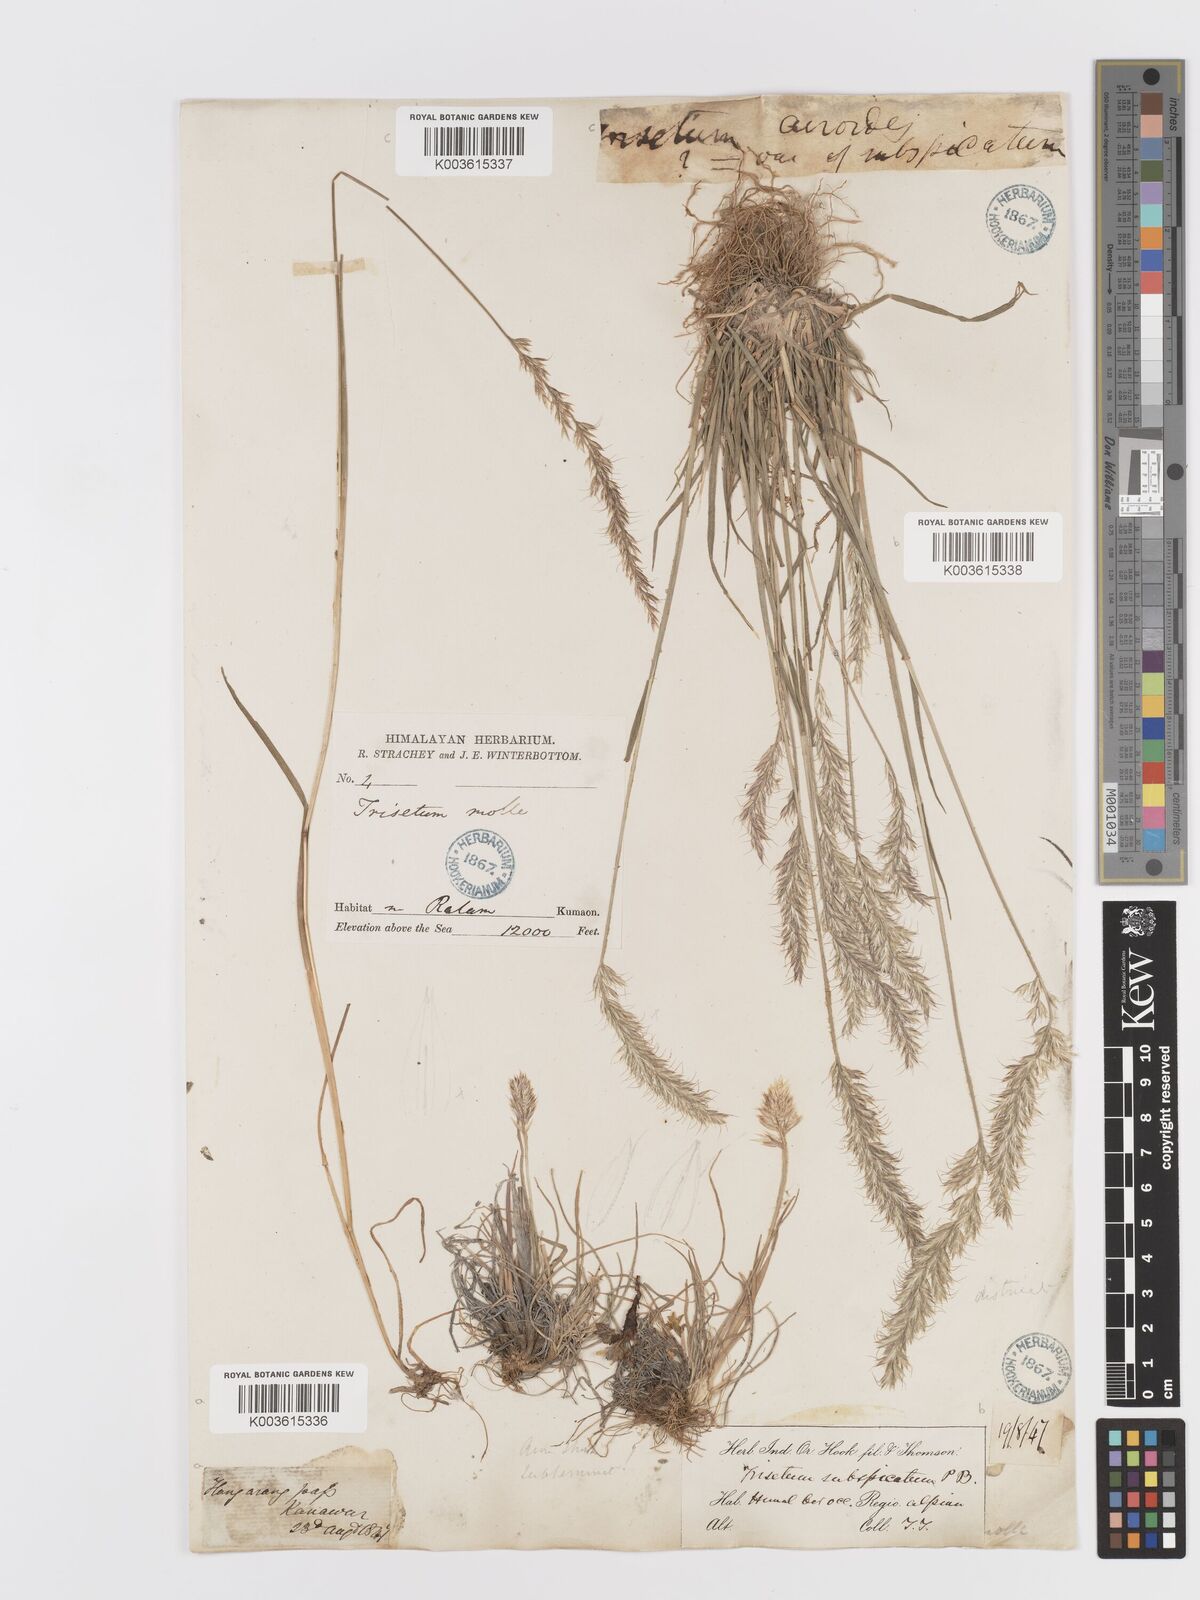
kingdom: Plantae
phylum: Tracheophyta
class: Liliopsida
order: Poales
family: Poaceae
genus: Trisetum
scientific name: Trisetum clarkei
